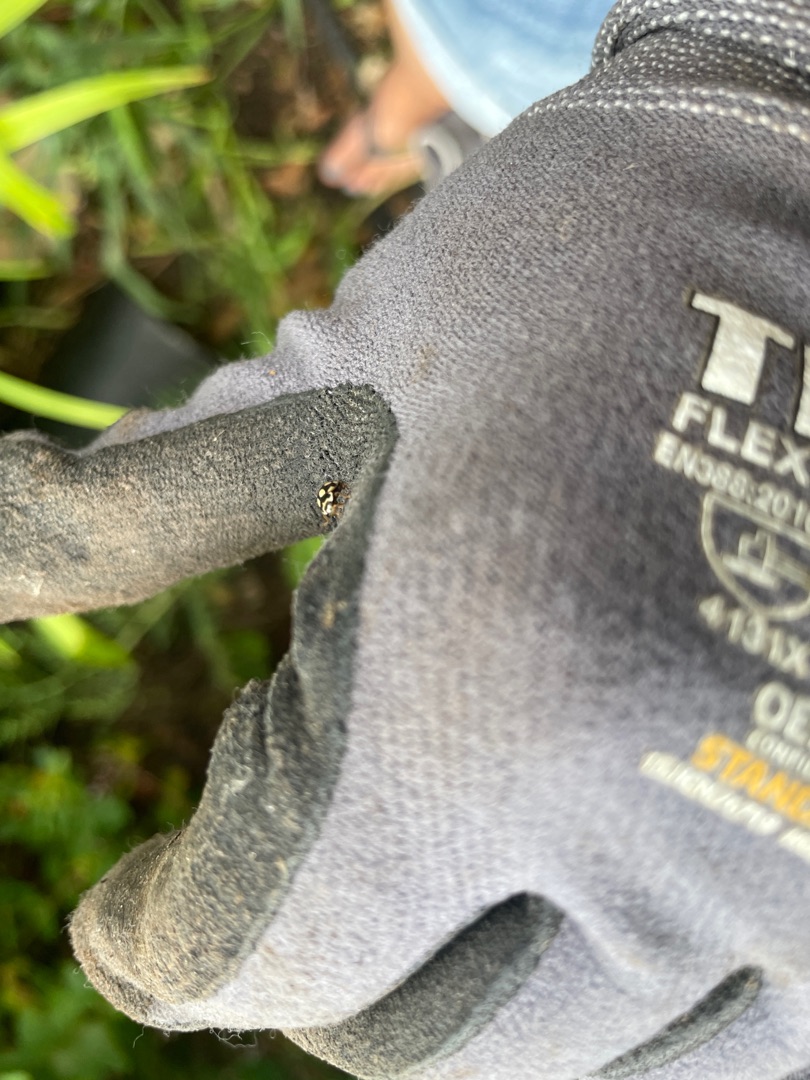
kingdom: Animalia
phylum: Arthropoda
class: Insecta
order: Coleoptera
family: Coccinellidae
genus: Propylaea
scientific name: Propylaea quatuordecimpunctata
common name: Skakbræt
